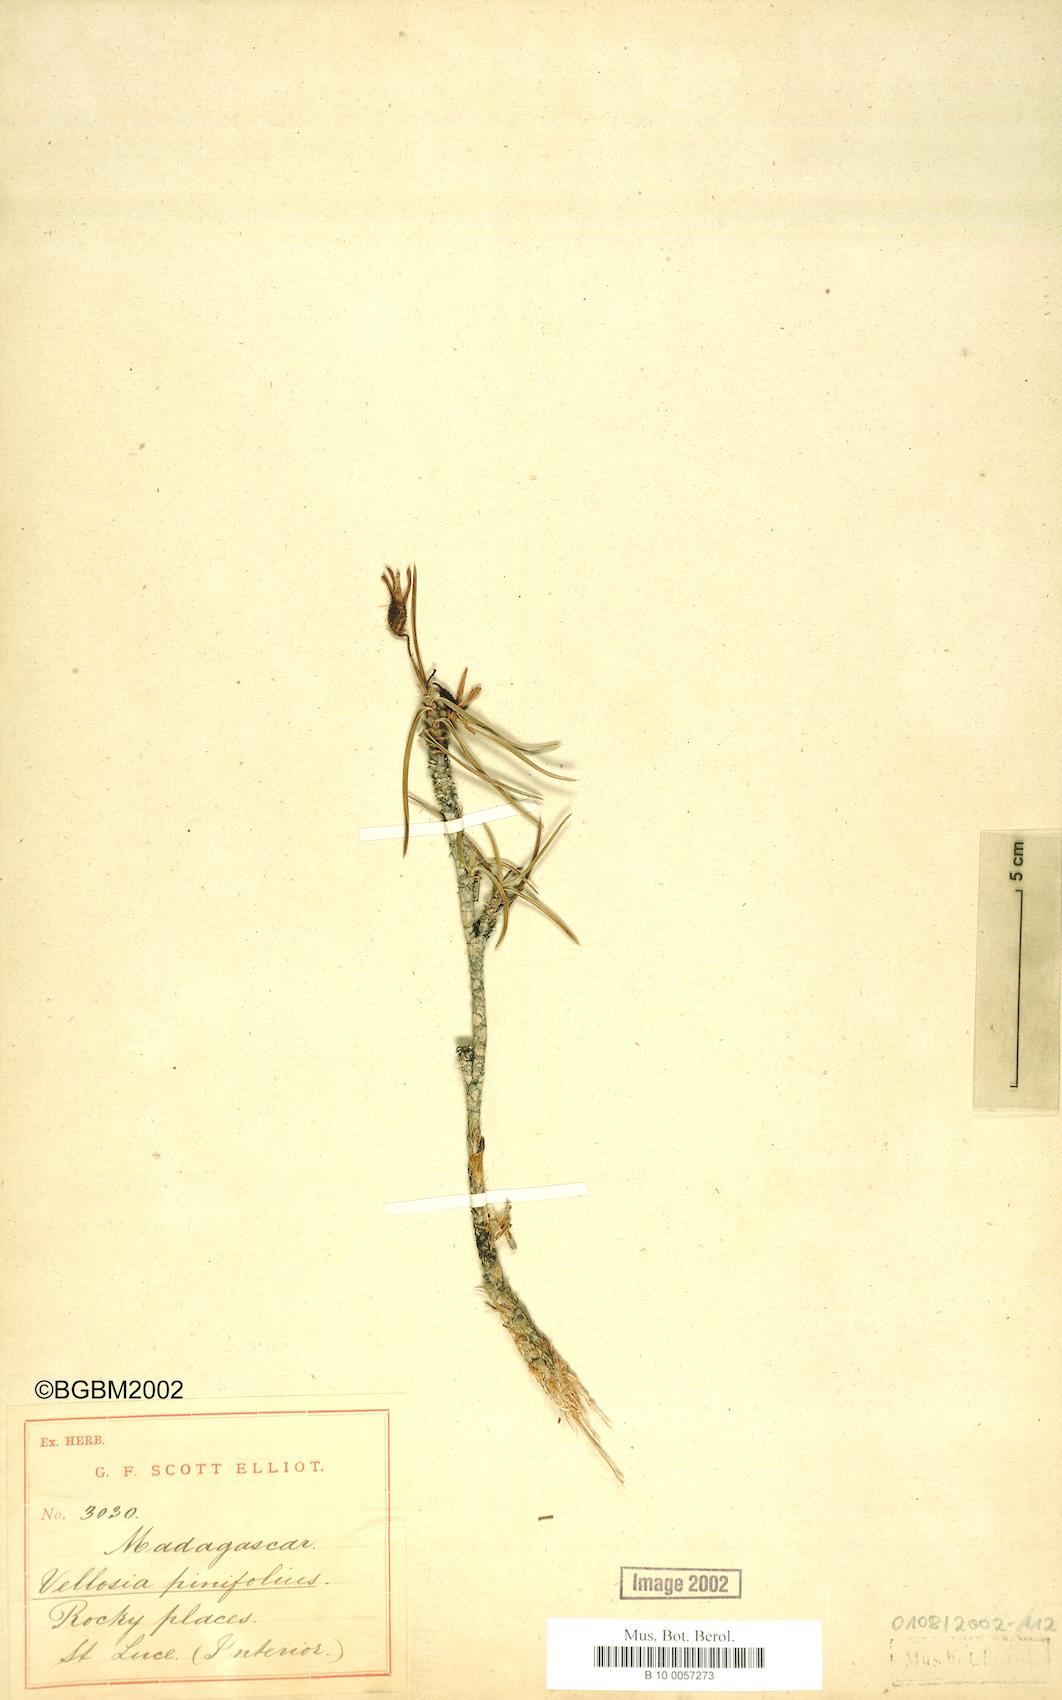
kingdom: Plantae
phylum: Tracheophyta
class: Liliopsida
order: Pandanales
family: Velloziaceae
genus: Xerophyta
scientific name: Xerophyta pinifolia
